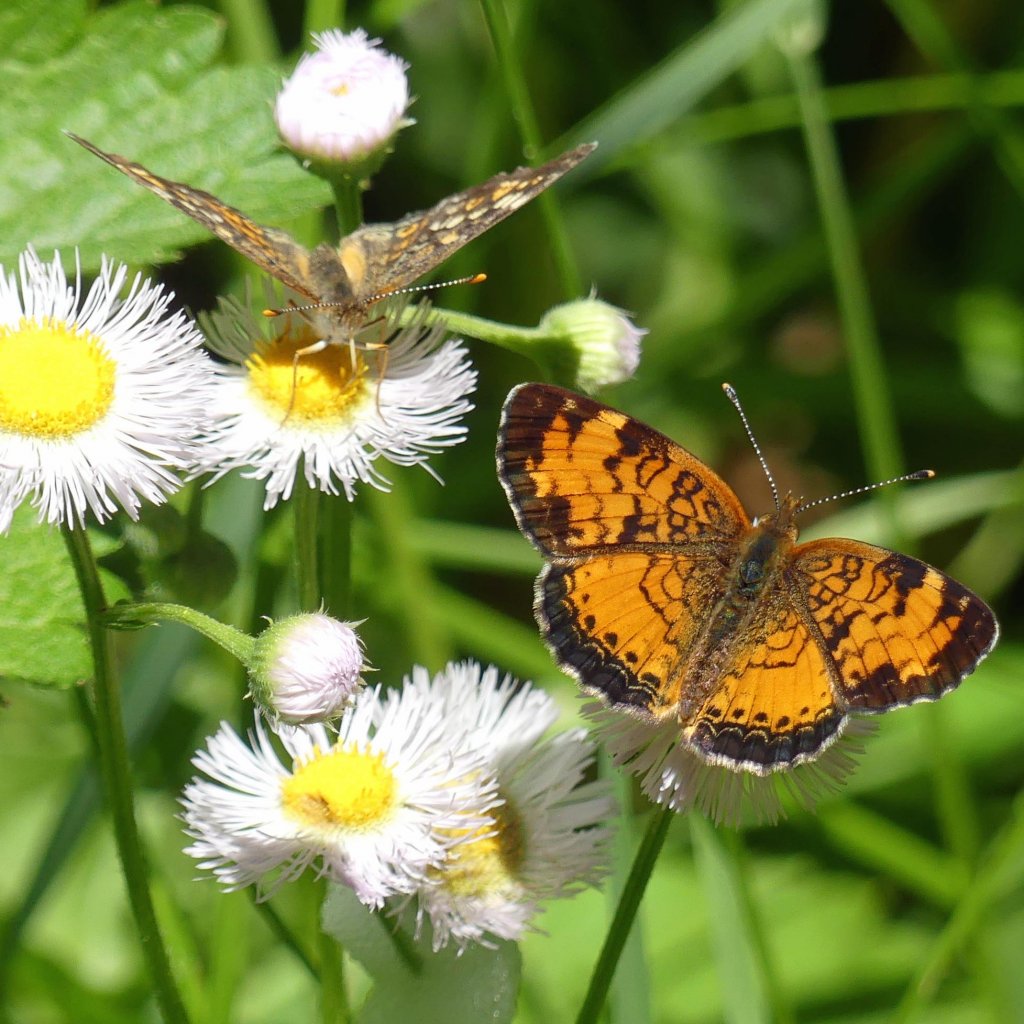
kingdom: Animalia
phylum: Arthropoda
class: Insecta
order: Lepidoptera
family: Nymphalidae
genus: Phyciodes
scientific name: Phyciodes tharos
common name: Northern Crescent
